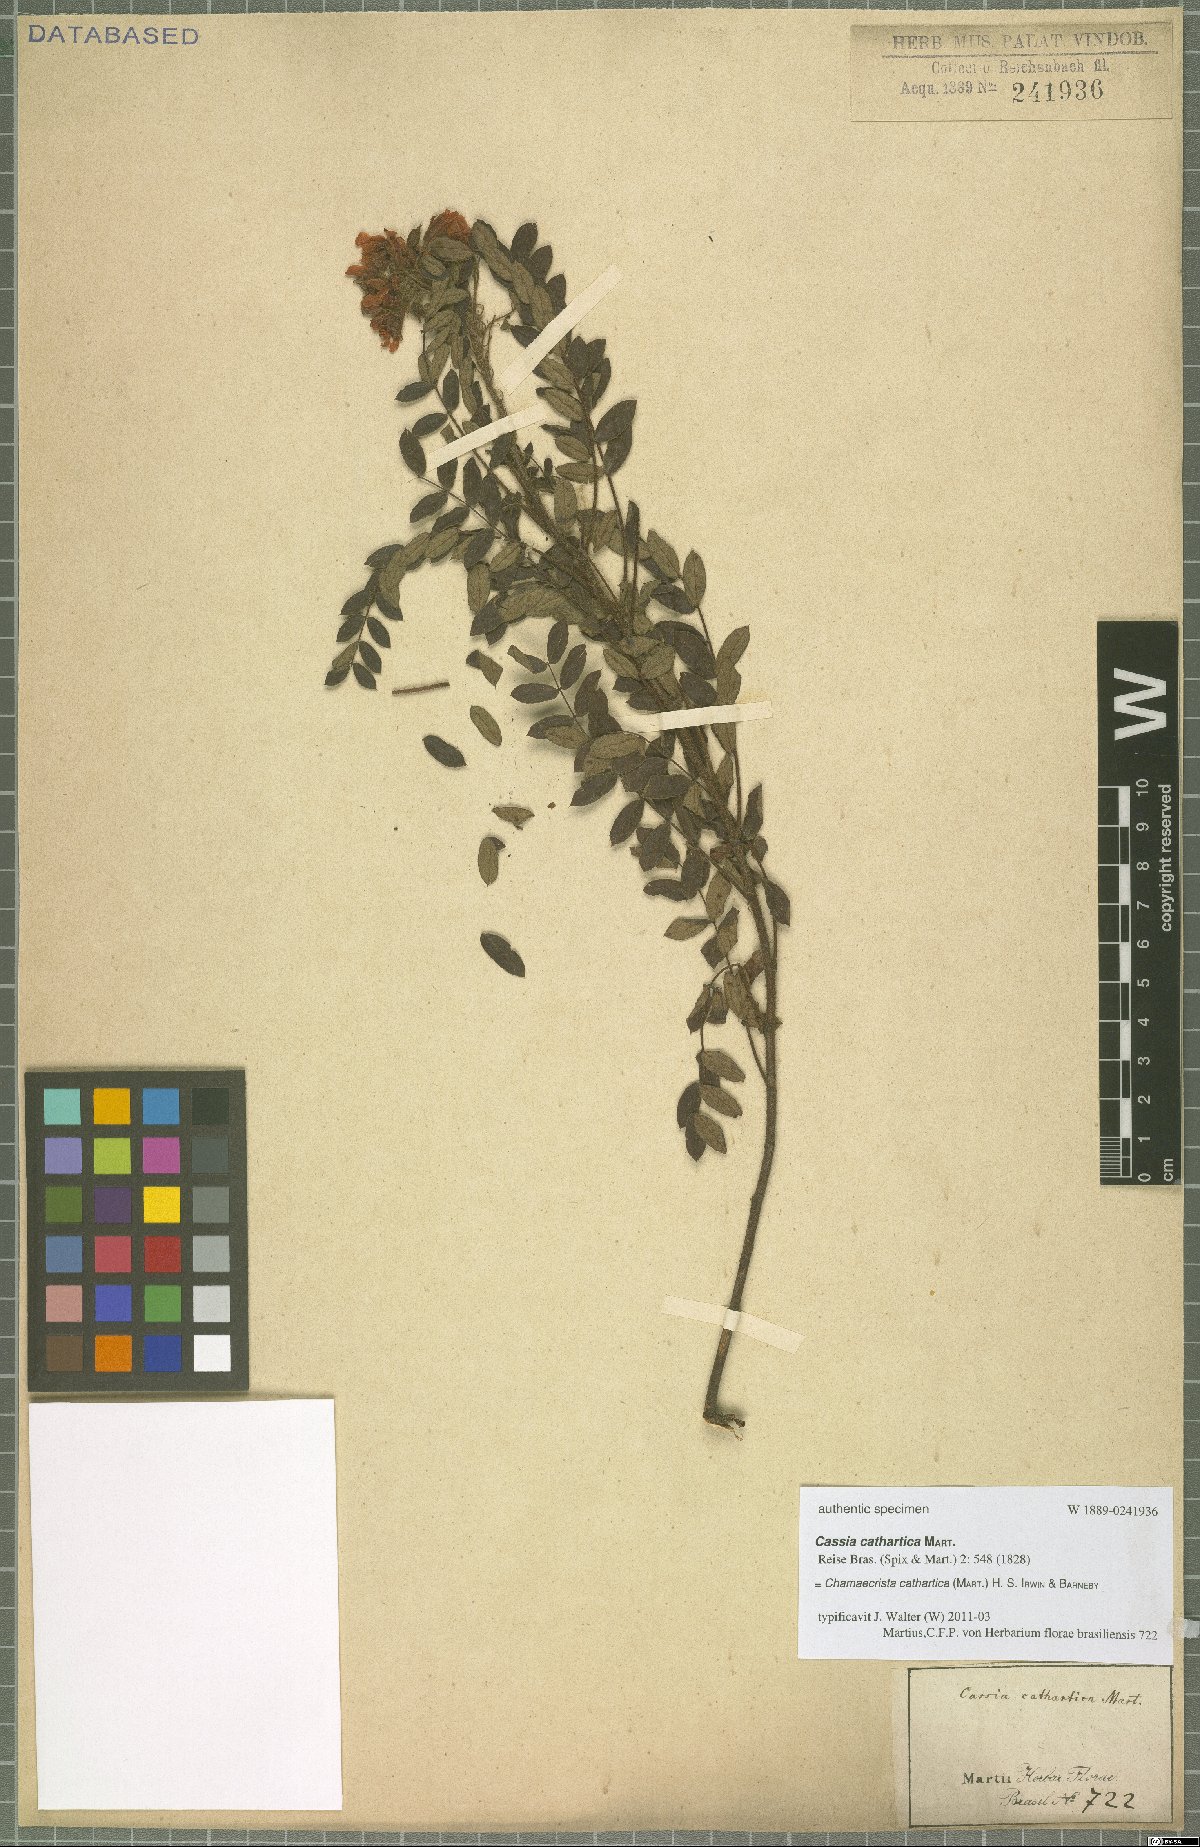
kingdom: Plantae
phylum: Tracheophyta
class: Magnoliopsida
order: Fabales
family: Fabaceae
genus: Chamaecrista
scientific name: Chamaecrista cathartica
